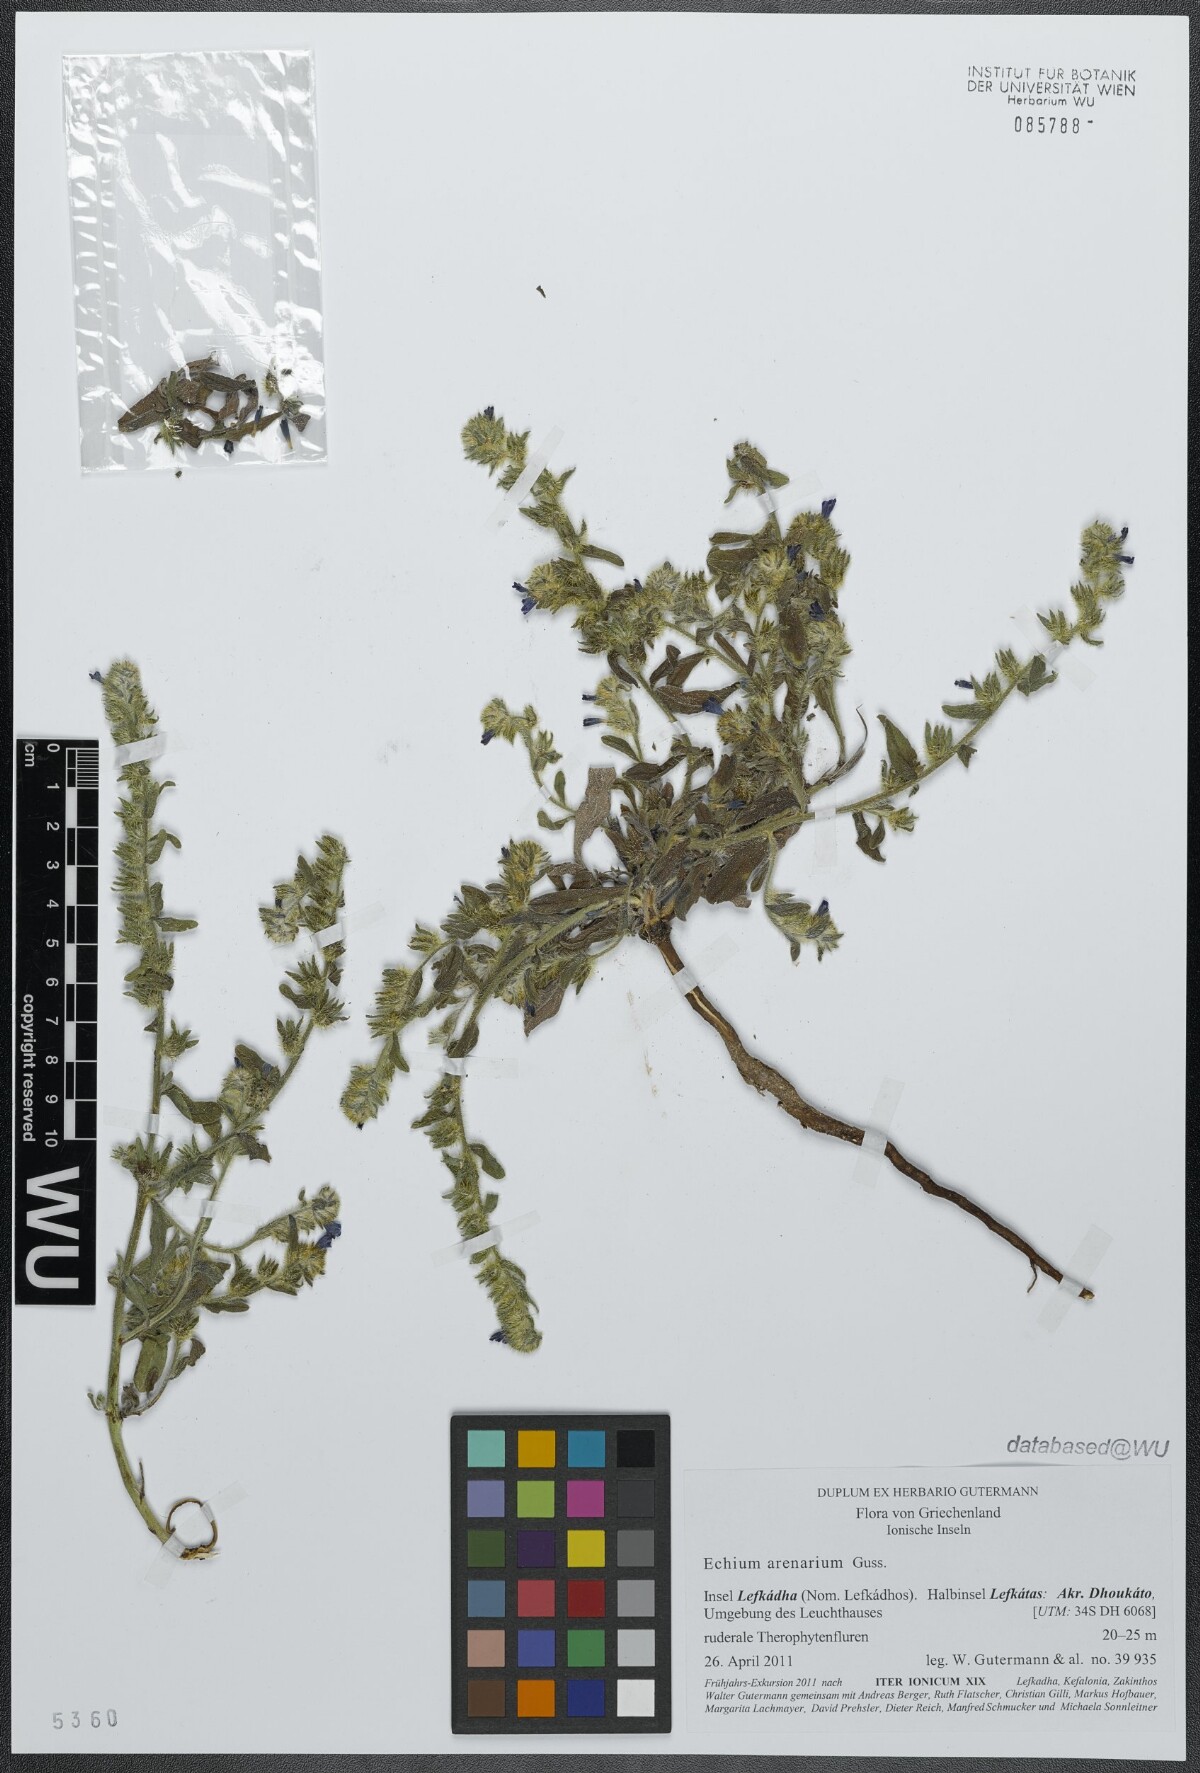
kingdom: Plantae
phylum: Tracheophyta
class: Magnoliopsida
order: Boraginales
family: Boraginaceae
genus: Echium
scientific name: Echium arenarium
